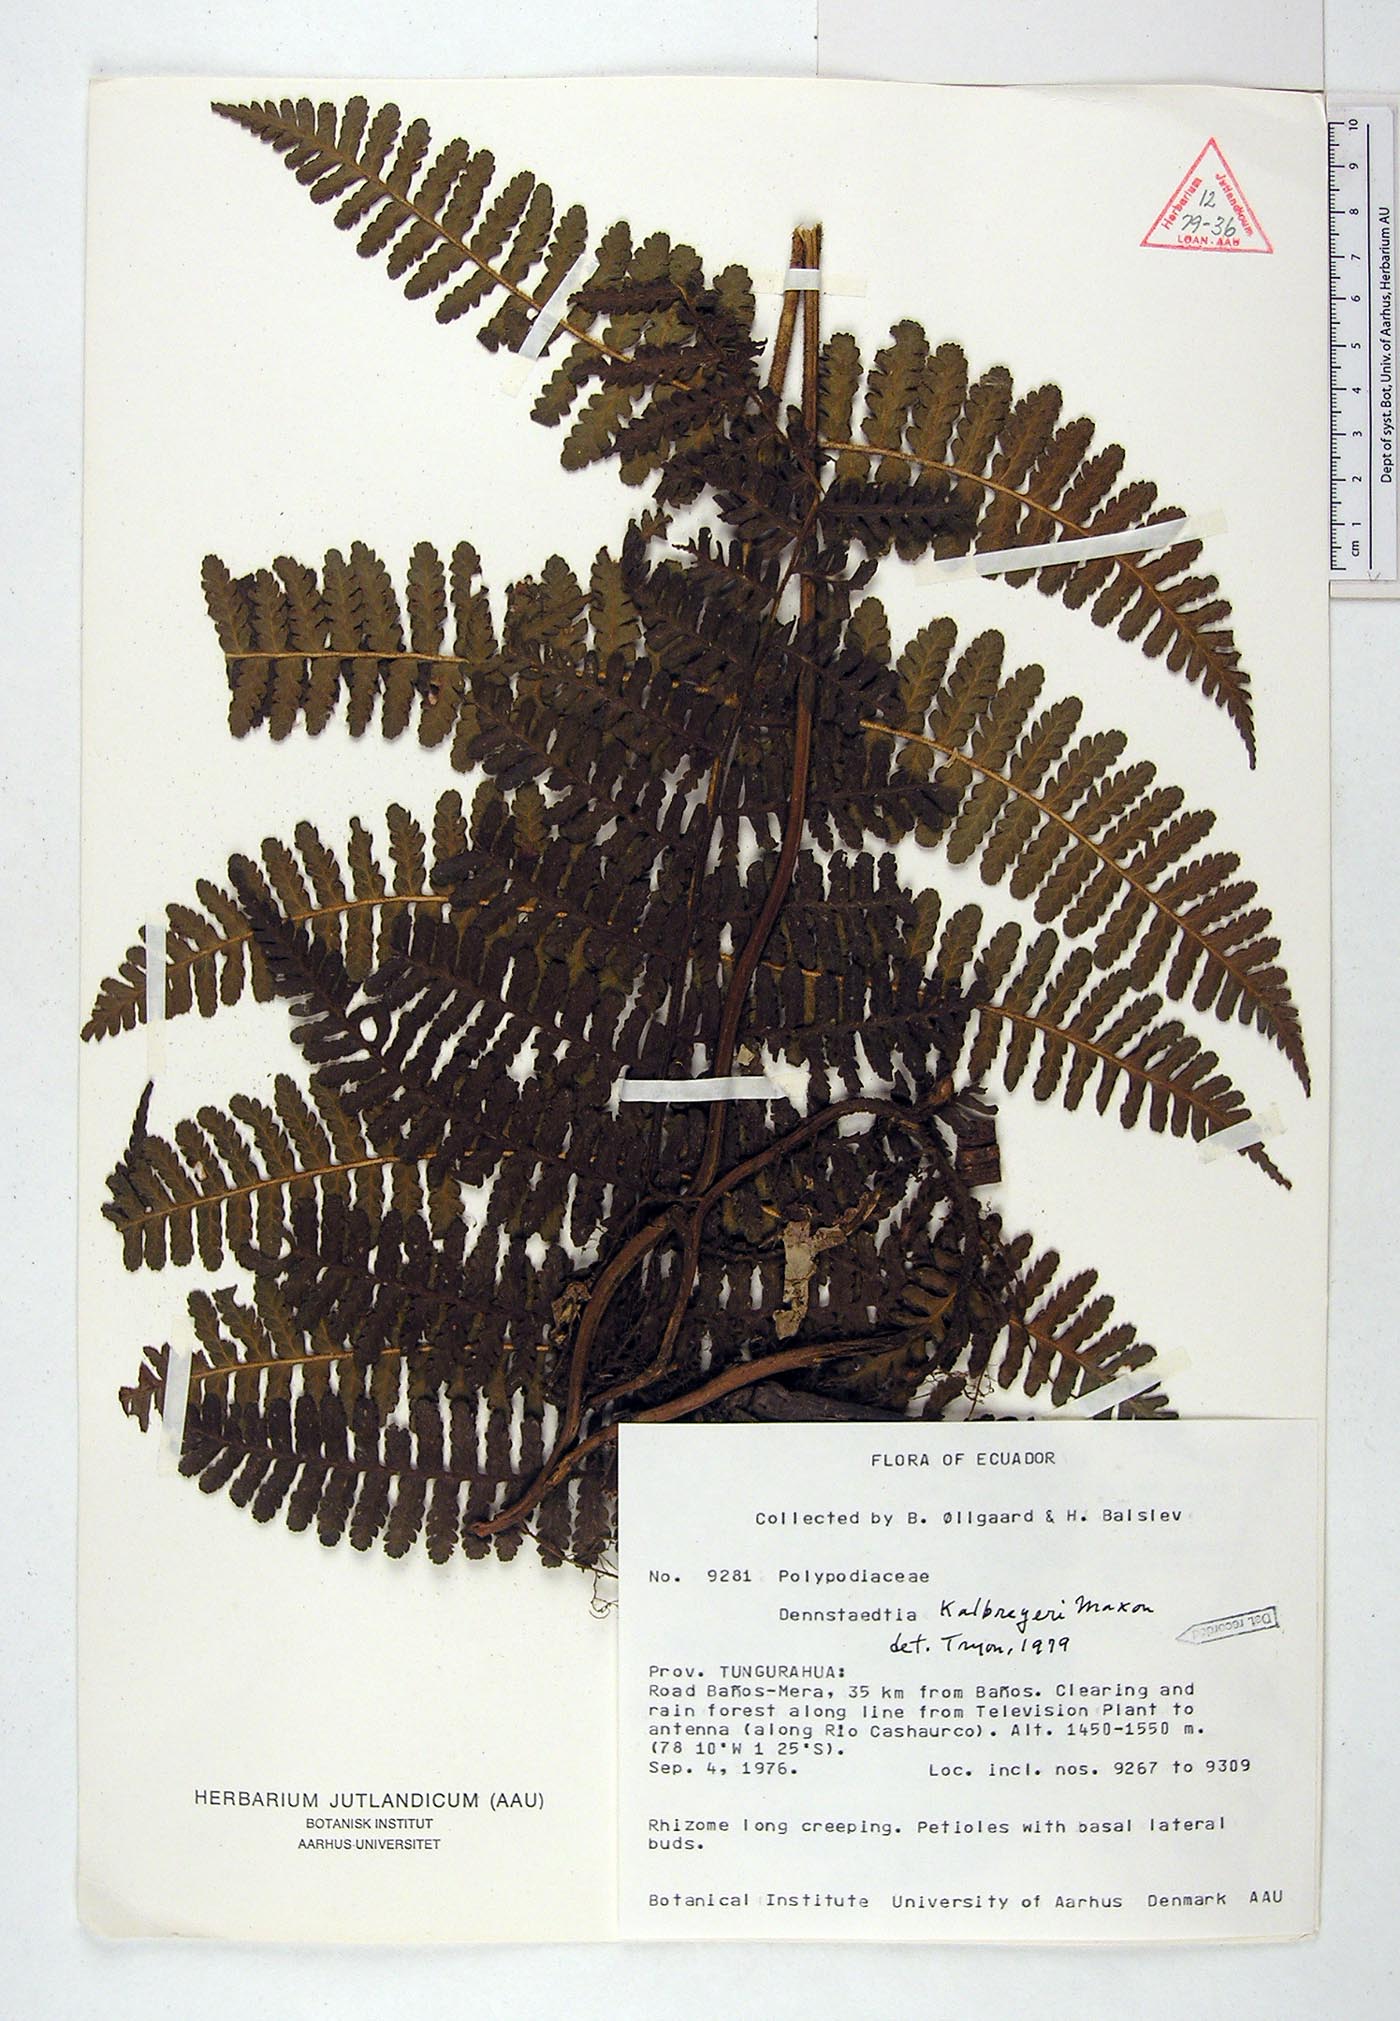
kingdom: Plantae
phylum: Tracheophyta
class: Polypodiopsida
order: Polypodiales
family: Dennstaedtiaceae
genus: Dennstaedtia
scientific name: Dennstaedtia obtusifolia
